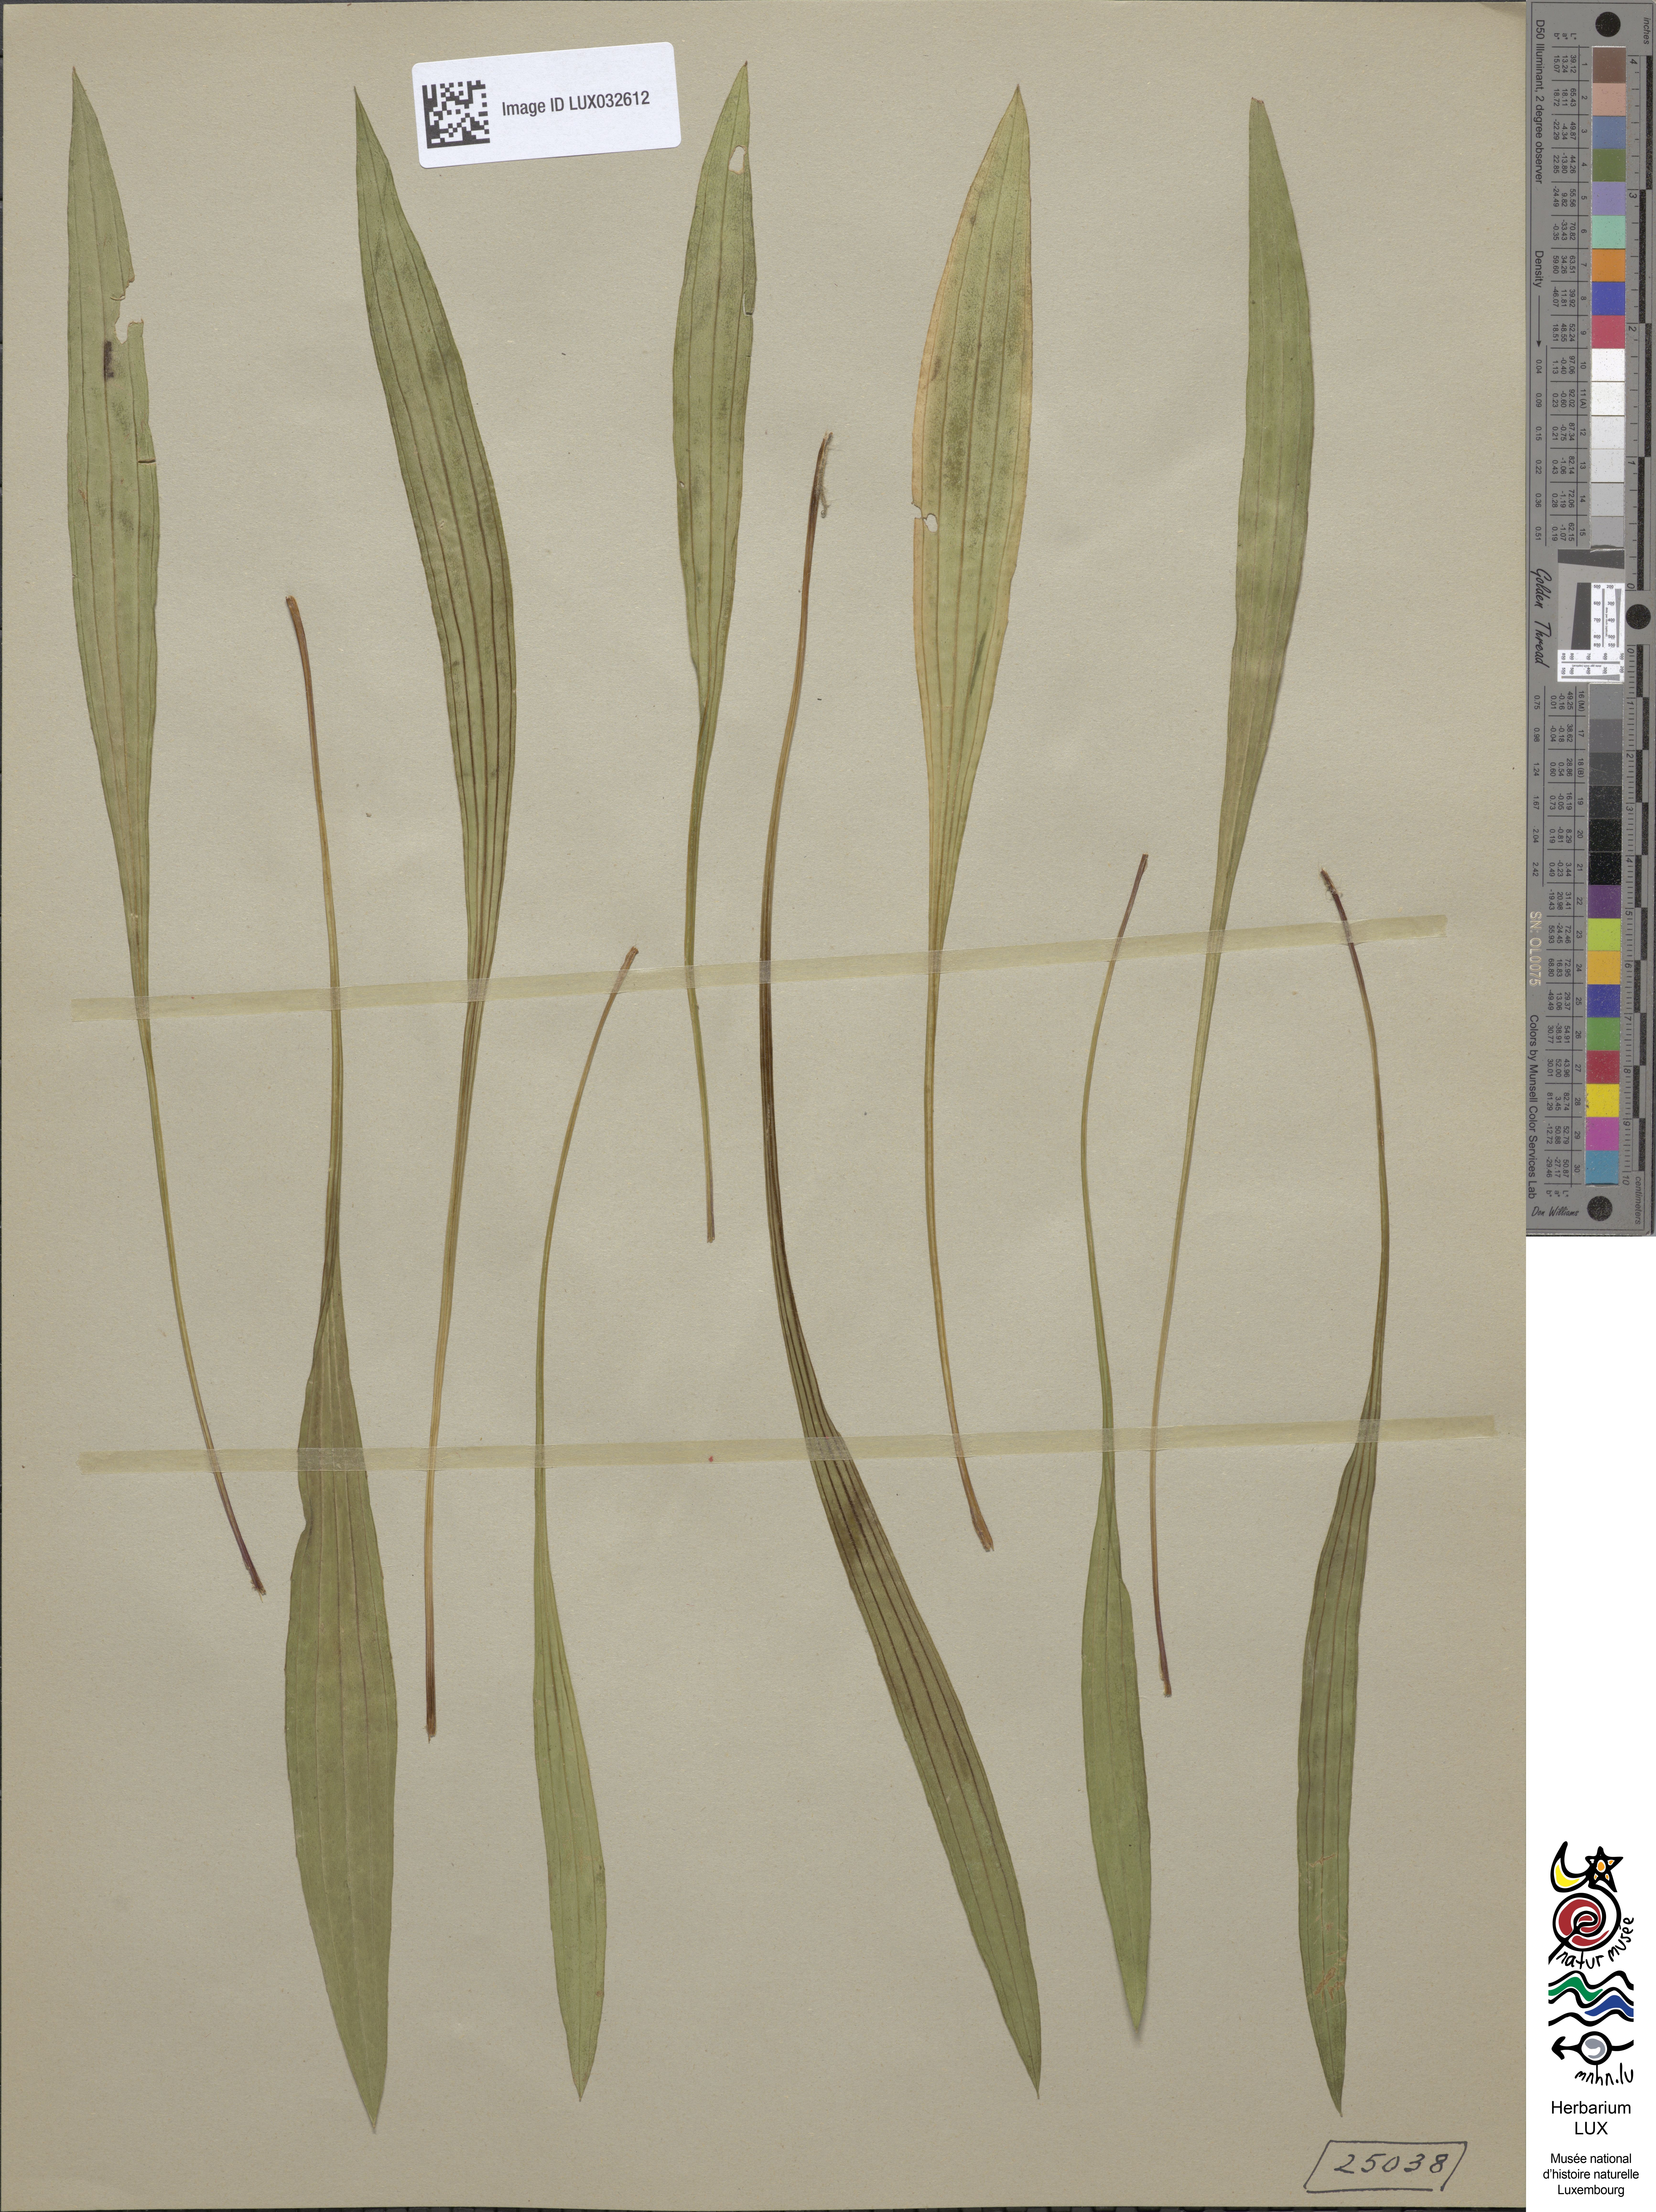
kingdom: Plantae
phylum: Tracheophyta
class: Magnoliopsida
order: Lamiales
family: Plantaginaceae
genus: Plantago
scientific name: Plantago lanceolata
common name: Ribwort plantain
